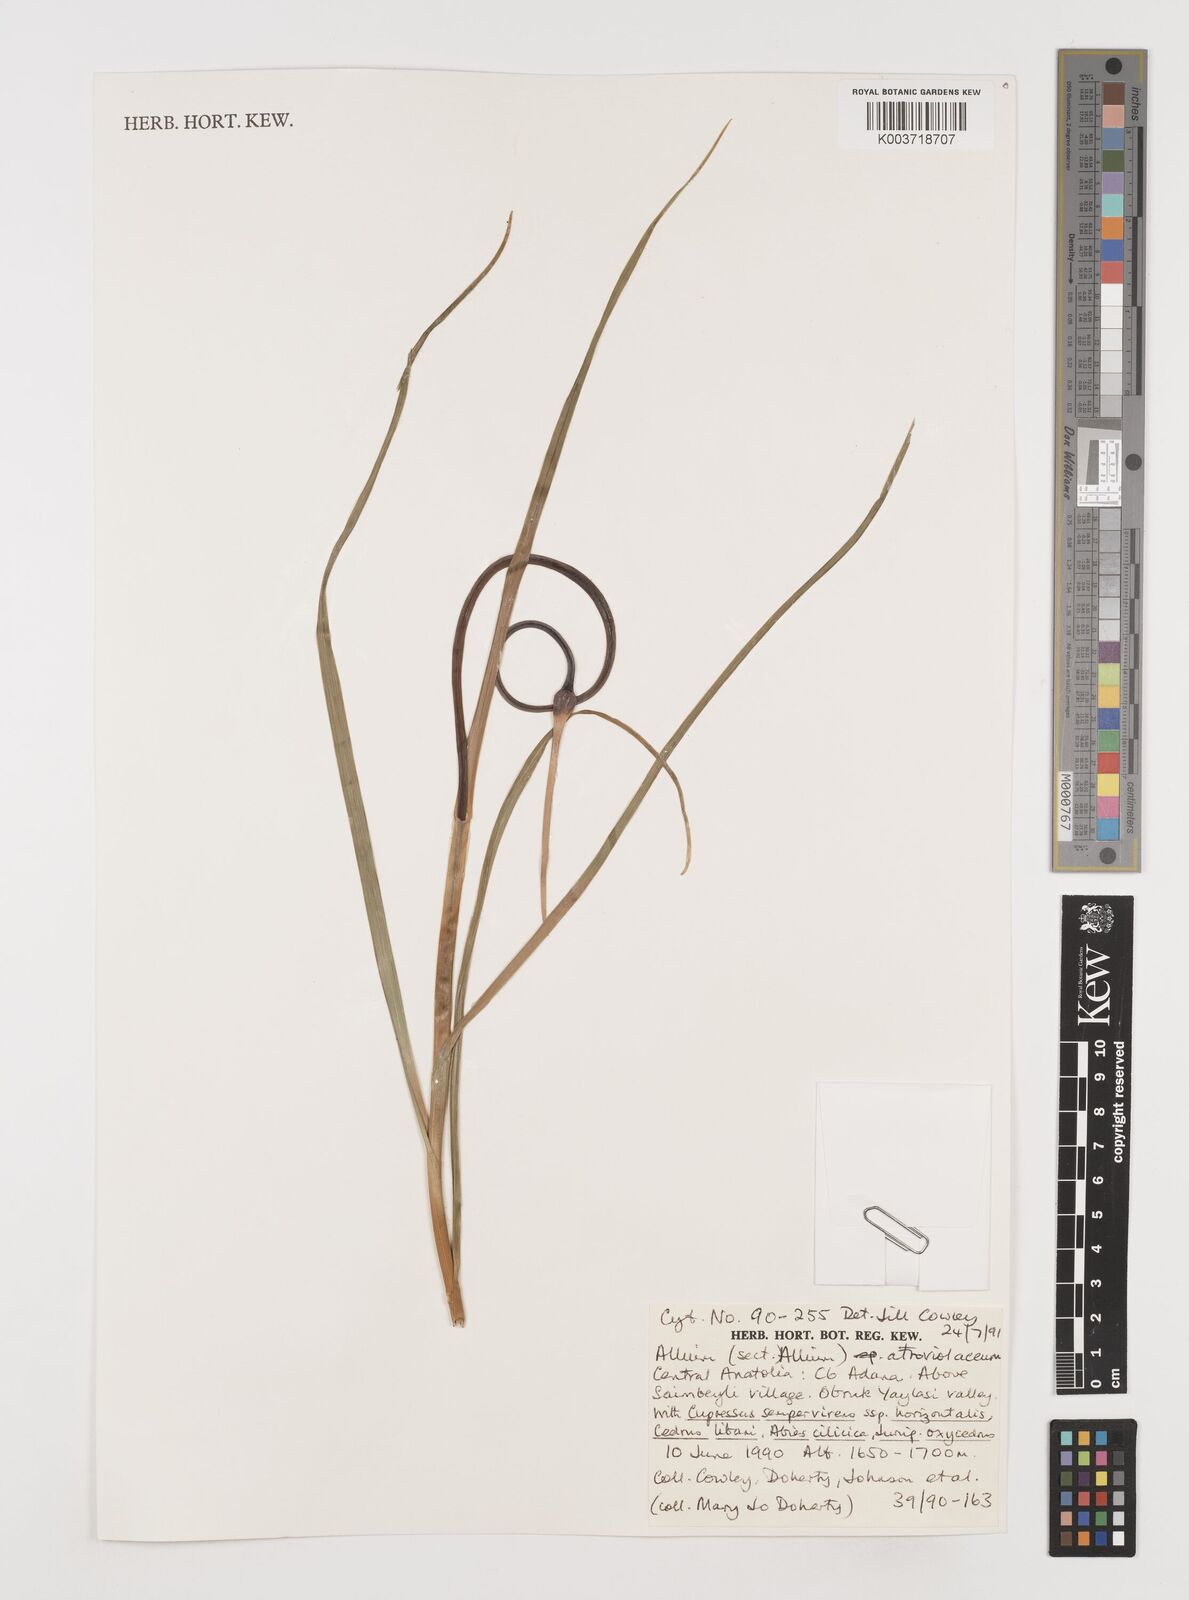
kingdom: Plantae
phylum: Tracheophyta
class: Liliopsida
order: Asparagales
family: Amaryllidaceae
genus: Allium
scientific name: Allium atroviolaceum
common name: Broadleaf wild leek
